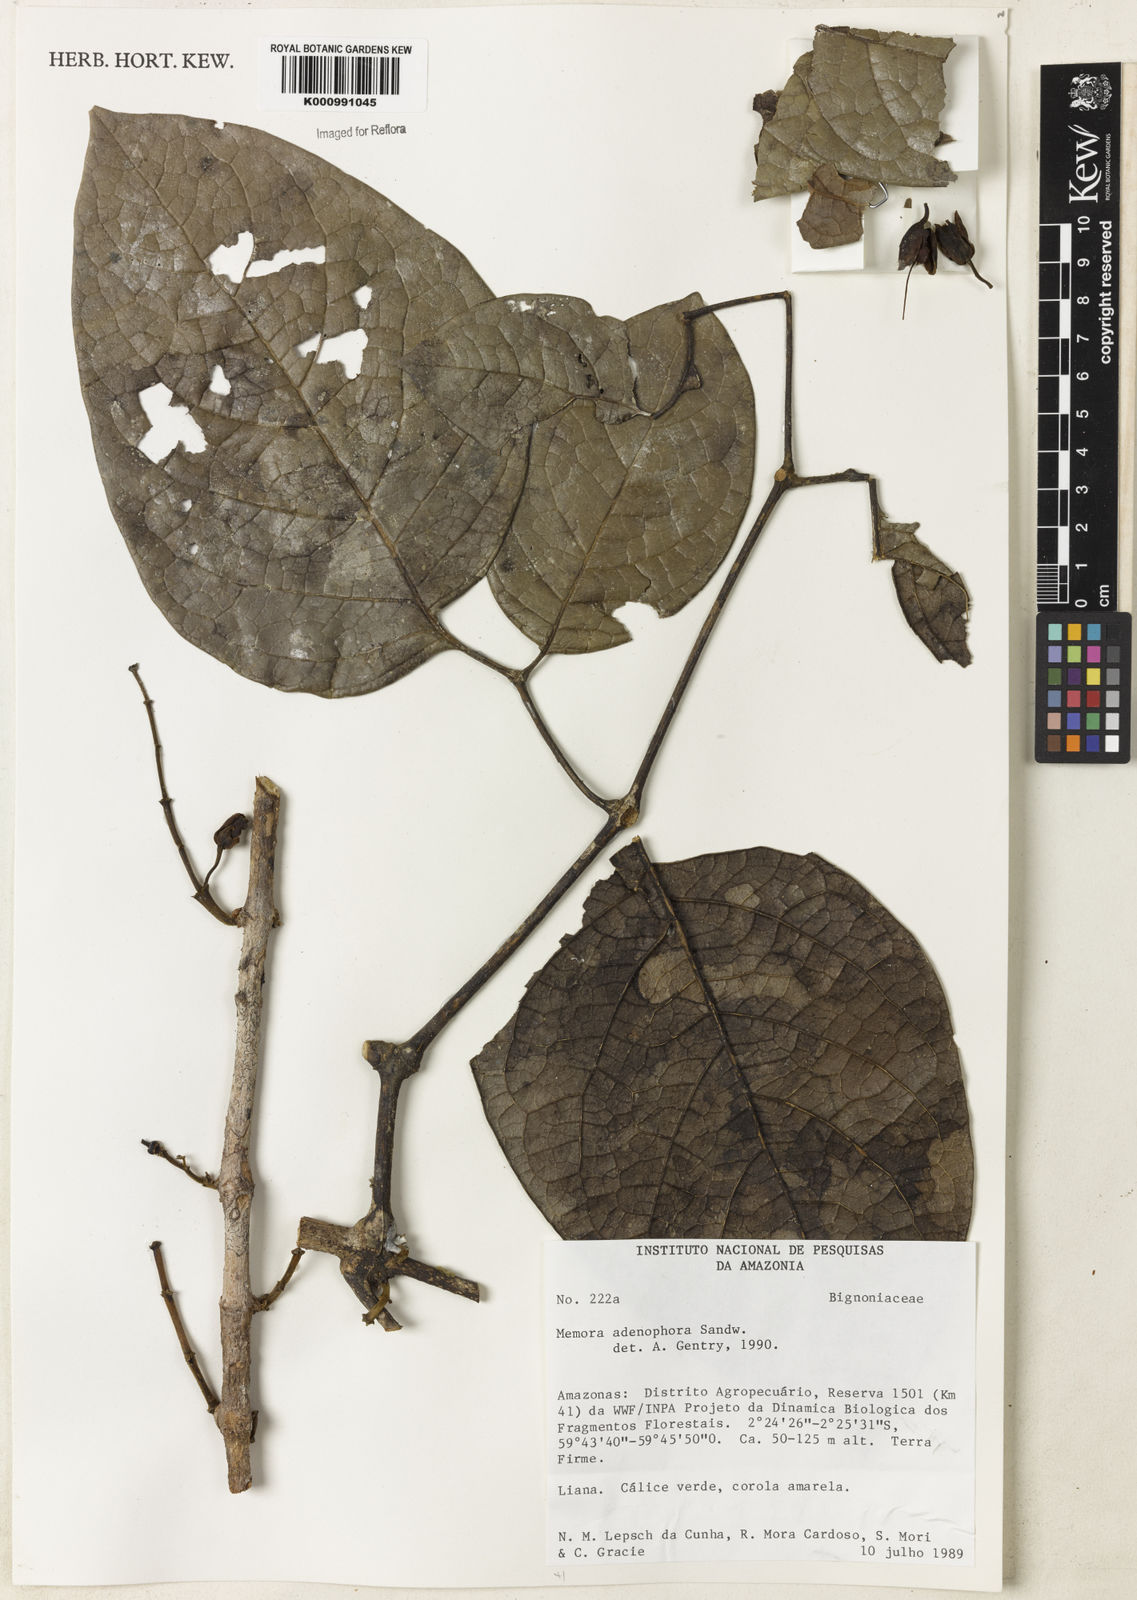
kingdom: Plantae
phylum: Tracheophyta
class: Magnoliopsida
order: Lamiales
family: Bignoniaceae
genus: Adenocalymma
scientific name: Adenocalymma adenophorum
